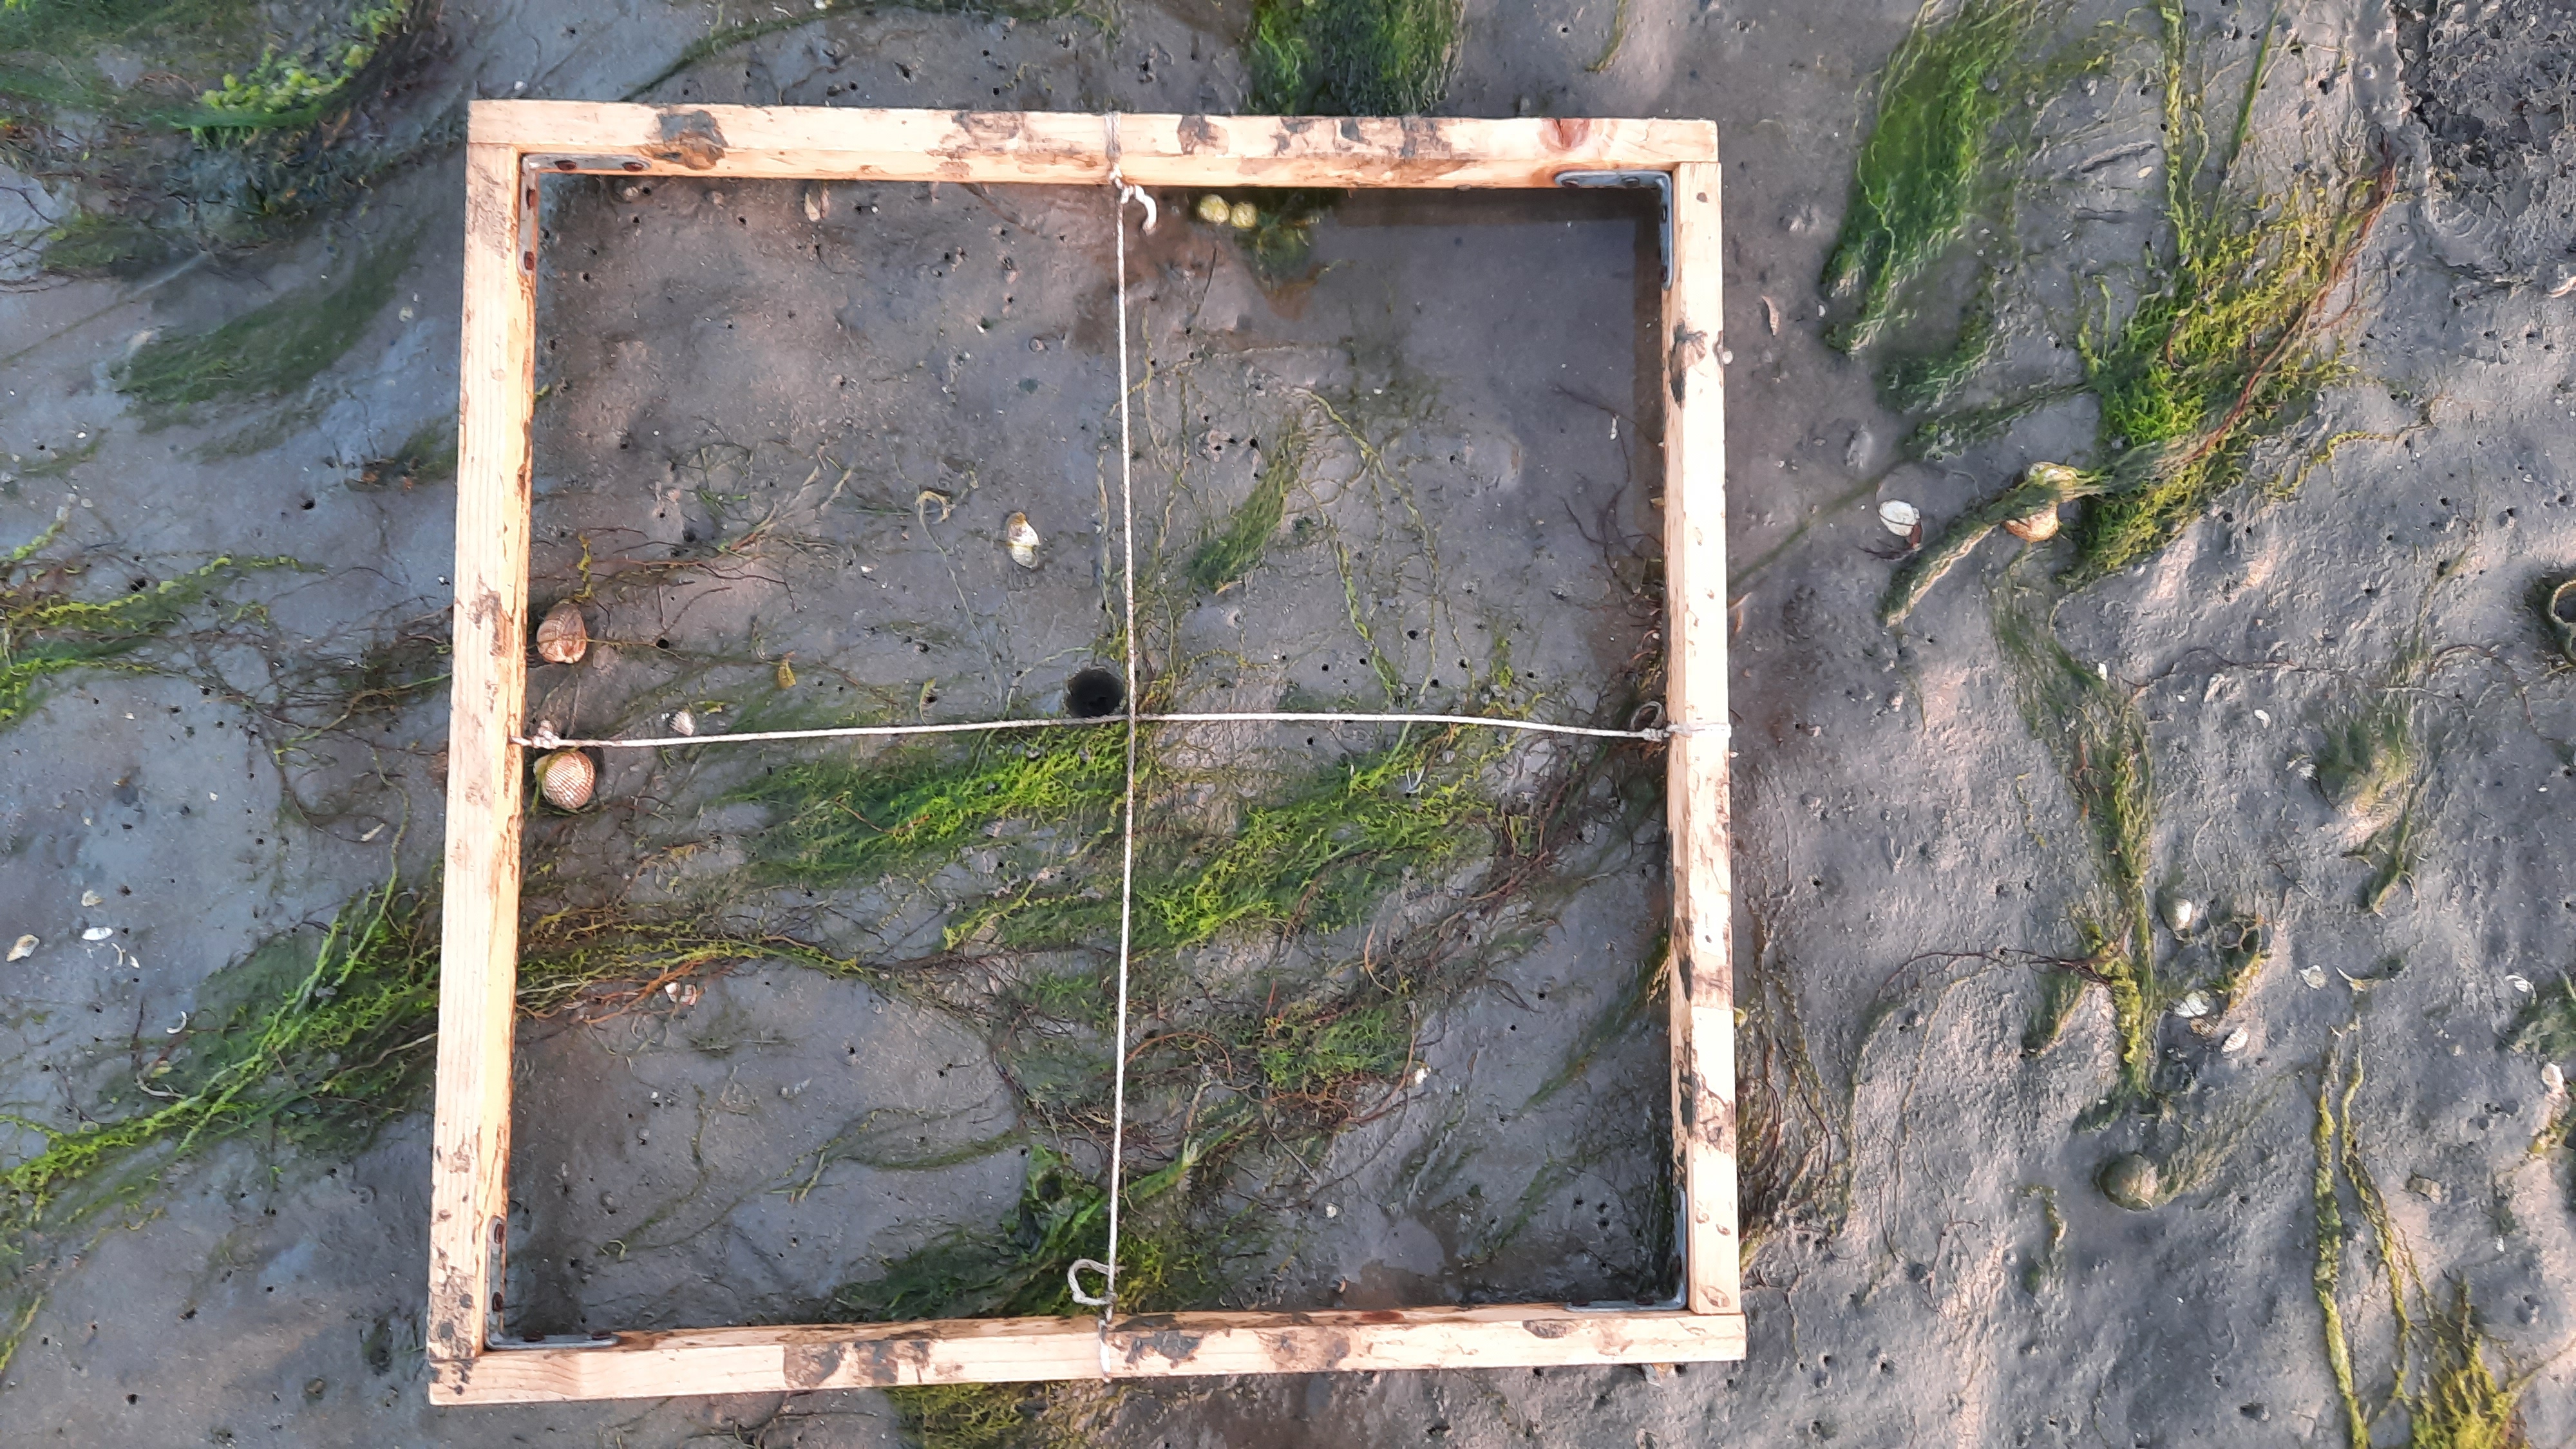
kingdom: Plantae
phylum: Tracheophyta
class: Liliopsida
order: Alismatales
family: Zosteraceae
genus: Zostera
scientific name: Zostera noltii
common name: Dwarf eelgrass
